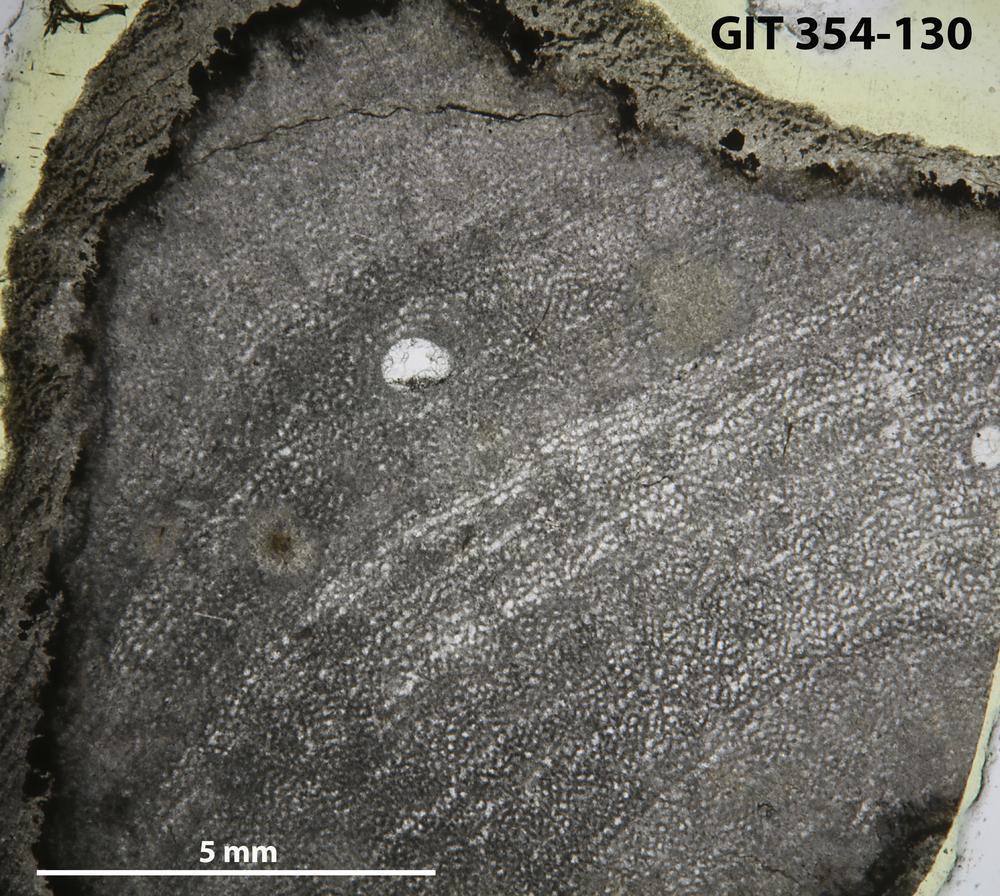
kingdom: Animalia
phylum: Porifera
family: Ecclimadictyidae
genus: Ecclimadictyon
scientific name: Ecclimadictyon Clathrodictyon microvesiculosum
